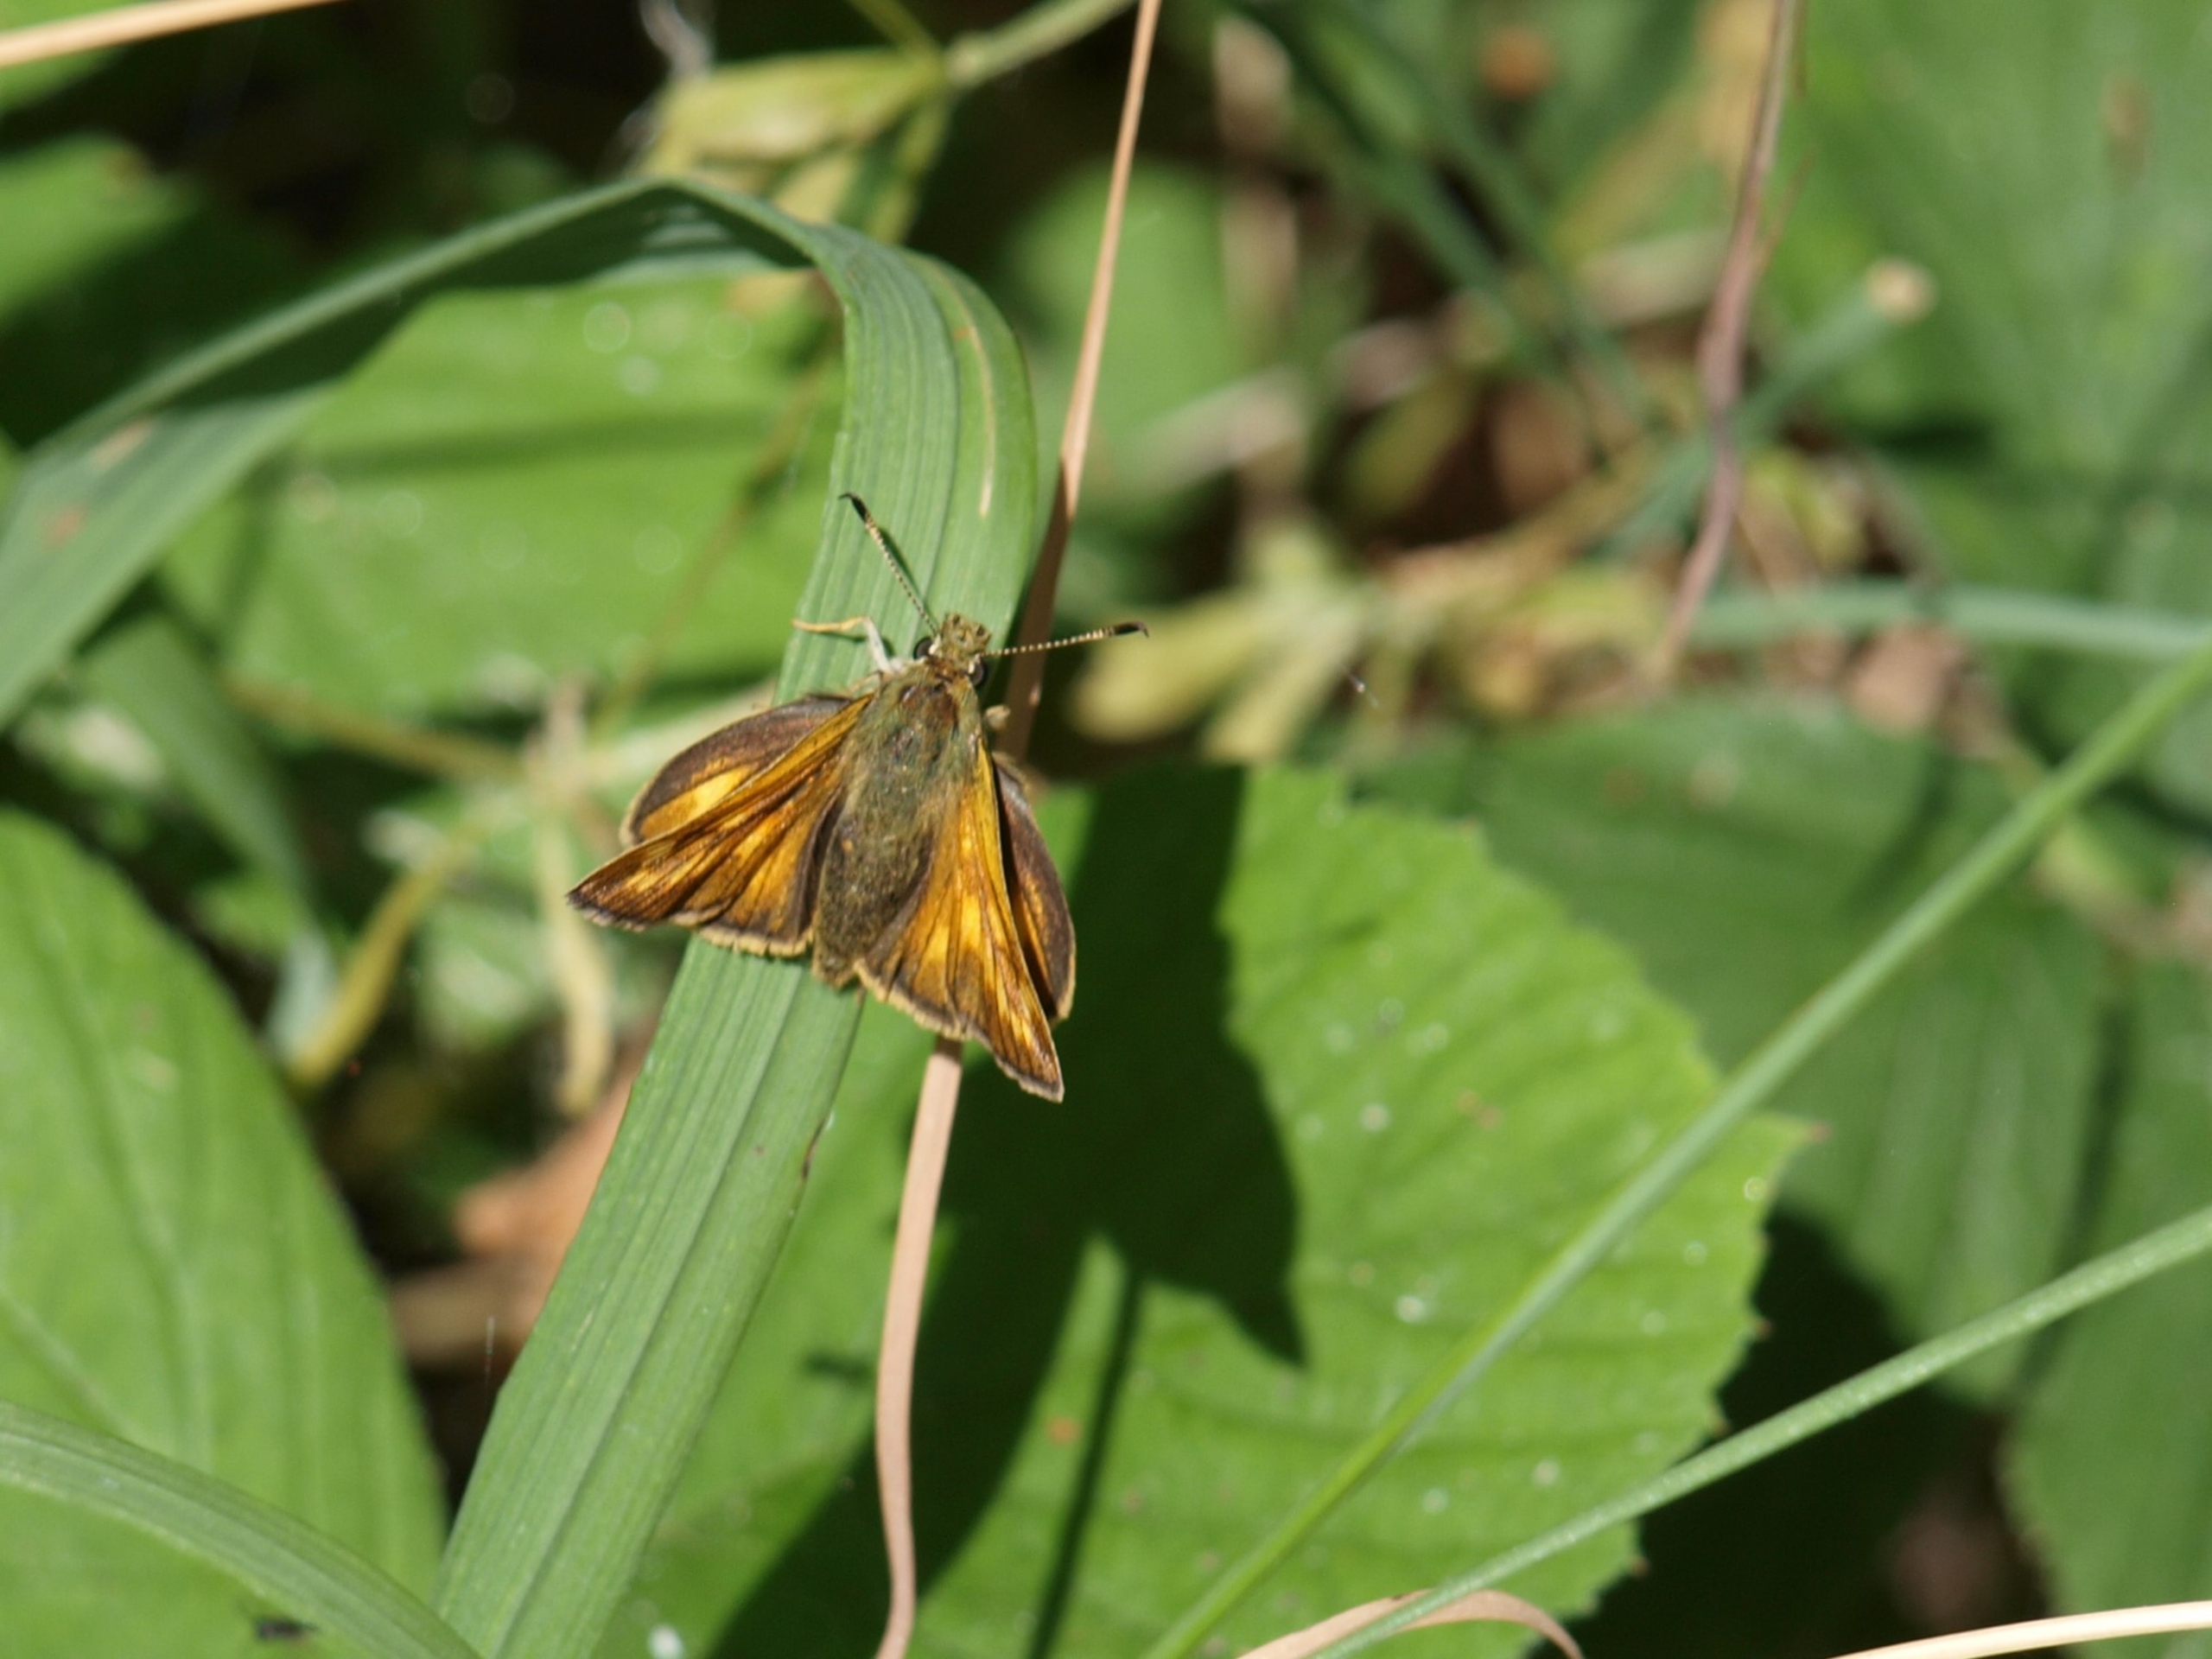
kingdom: Animalia
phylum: Arthropoda
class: Insecta
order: Lepidoptera
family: Hesperiidae
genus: Ochlodes
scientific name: Ochlodes venata
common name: Stor bredpande
